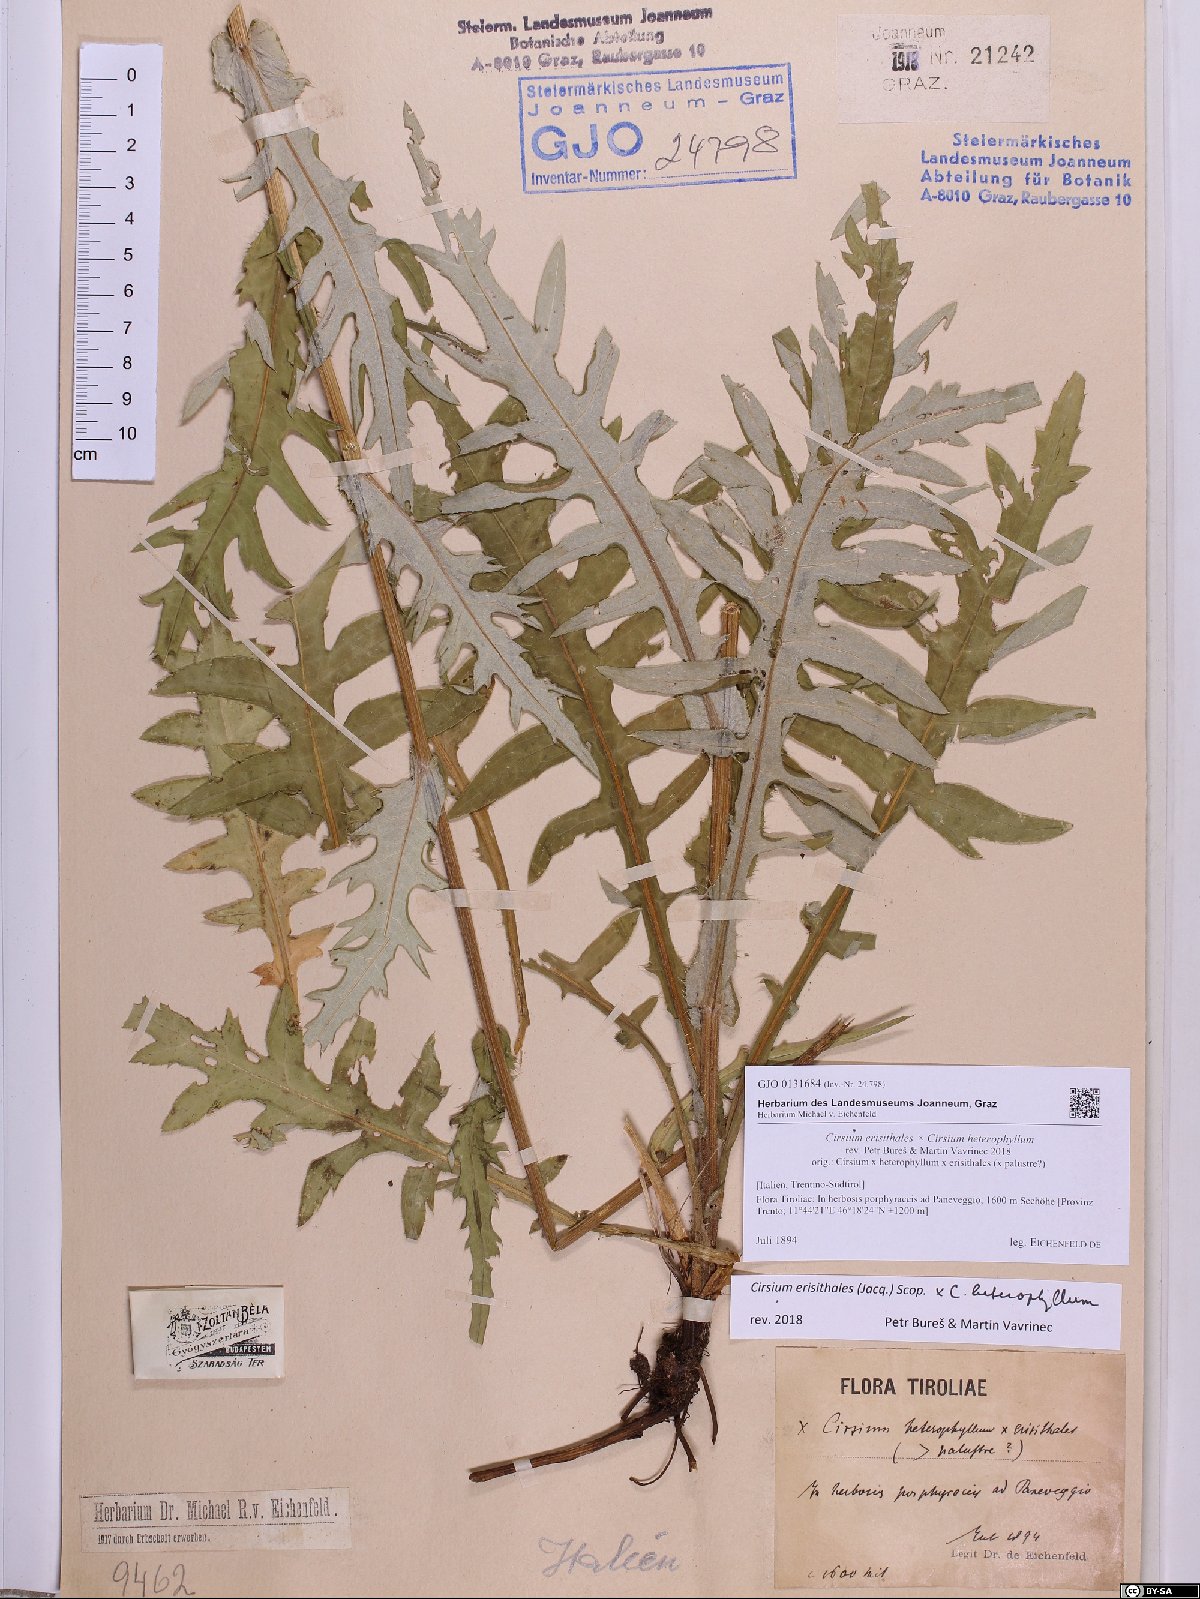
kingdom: Plantae
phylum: Tracheophyta
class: Magnoliopsida
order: Asterales
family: Asteraceae
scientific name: Asteraceae
